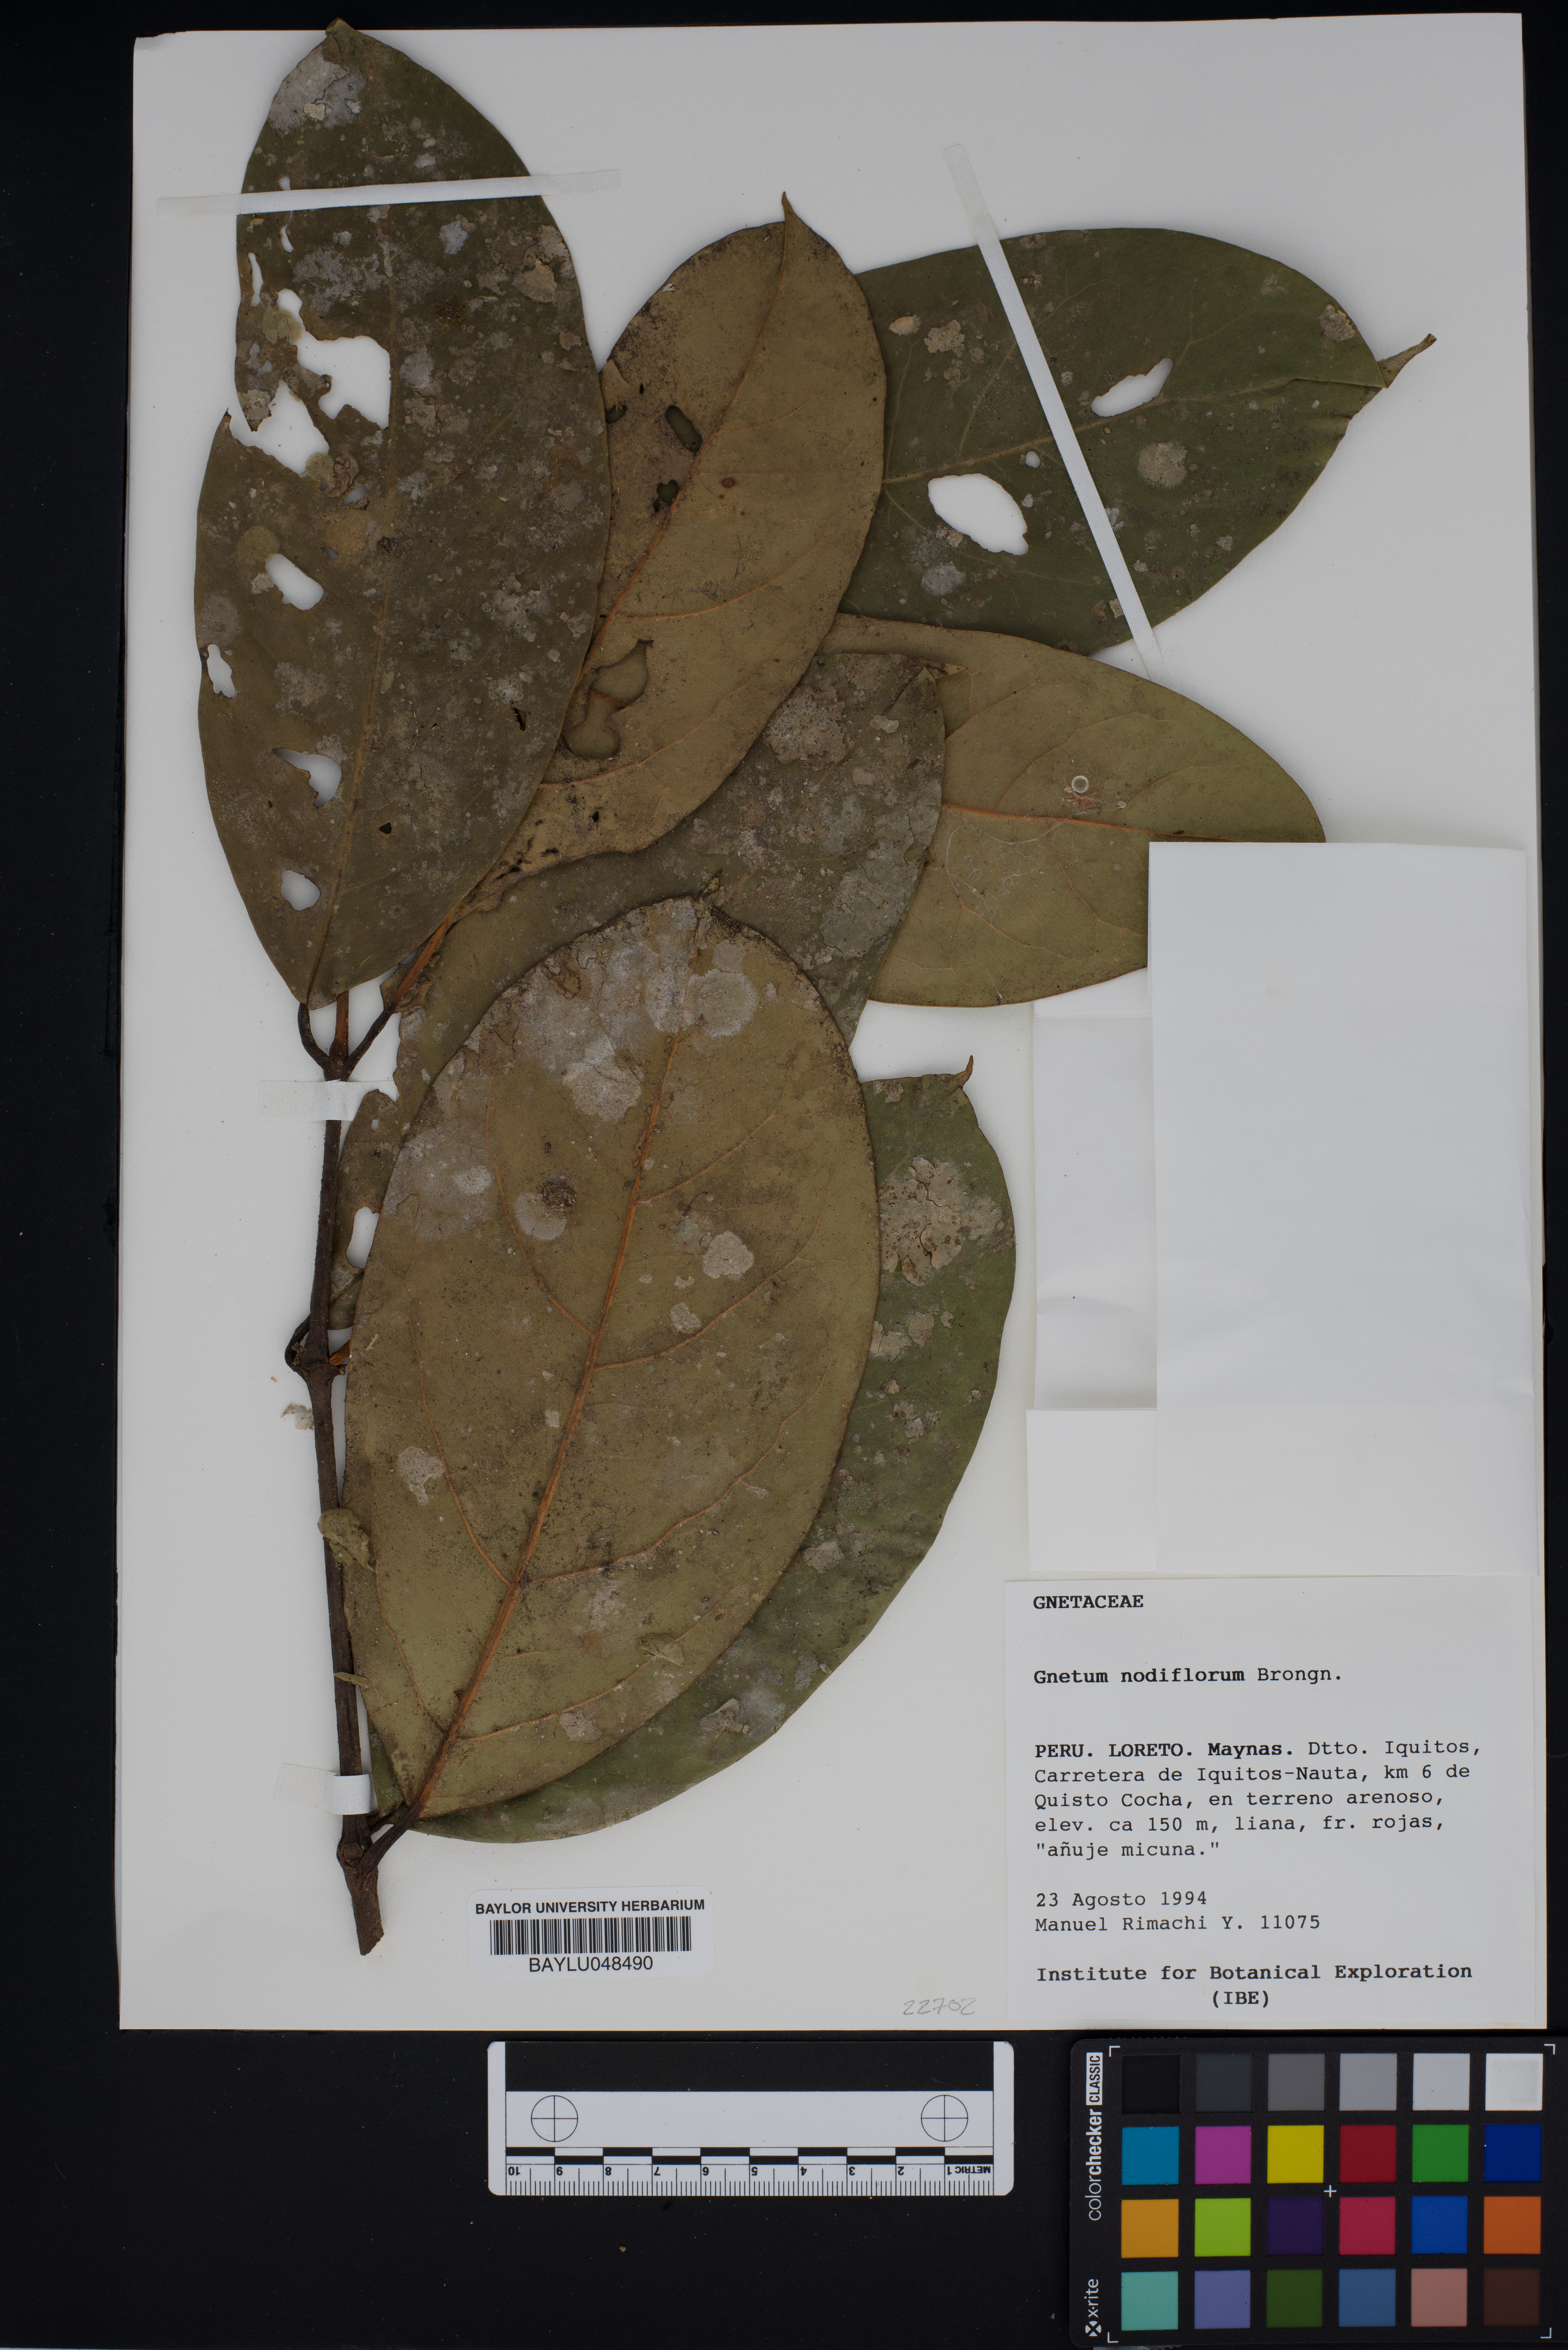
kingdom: Plantae
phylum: Tracheophyta
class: Gnetopsida
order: Gnetales
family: Gnetaceae
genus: Gnetum
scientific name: Gnetum nodiflorum
